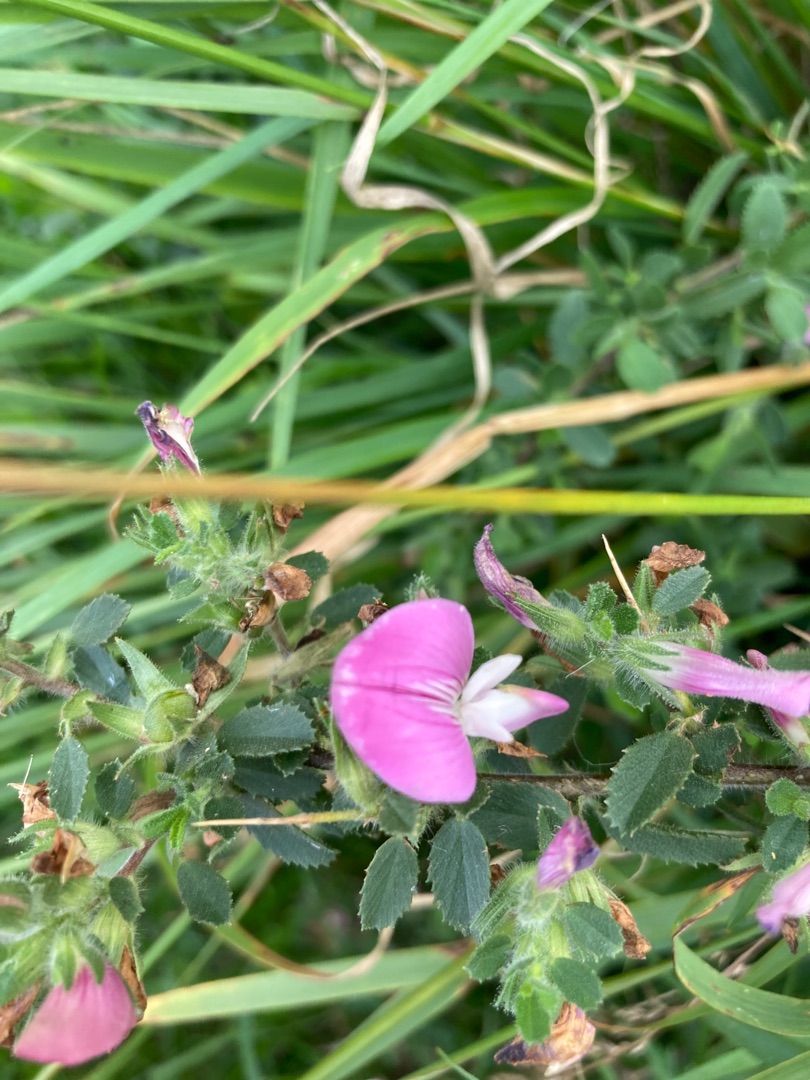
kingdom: Plantae
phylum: Tracheophyta
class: Magnoliopsida
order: Fabales
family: Fabaceae
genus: Ononis
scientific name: Ononis spinosa
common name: Mark-krageklo
